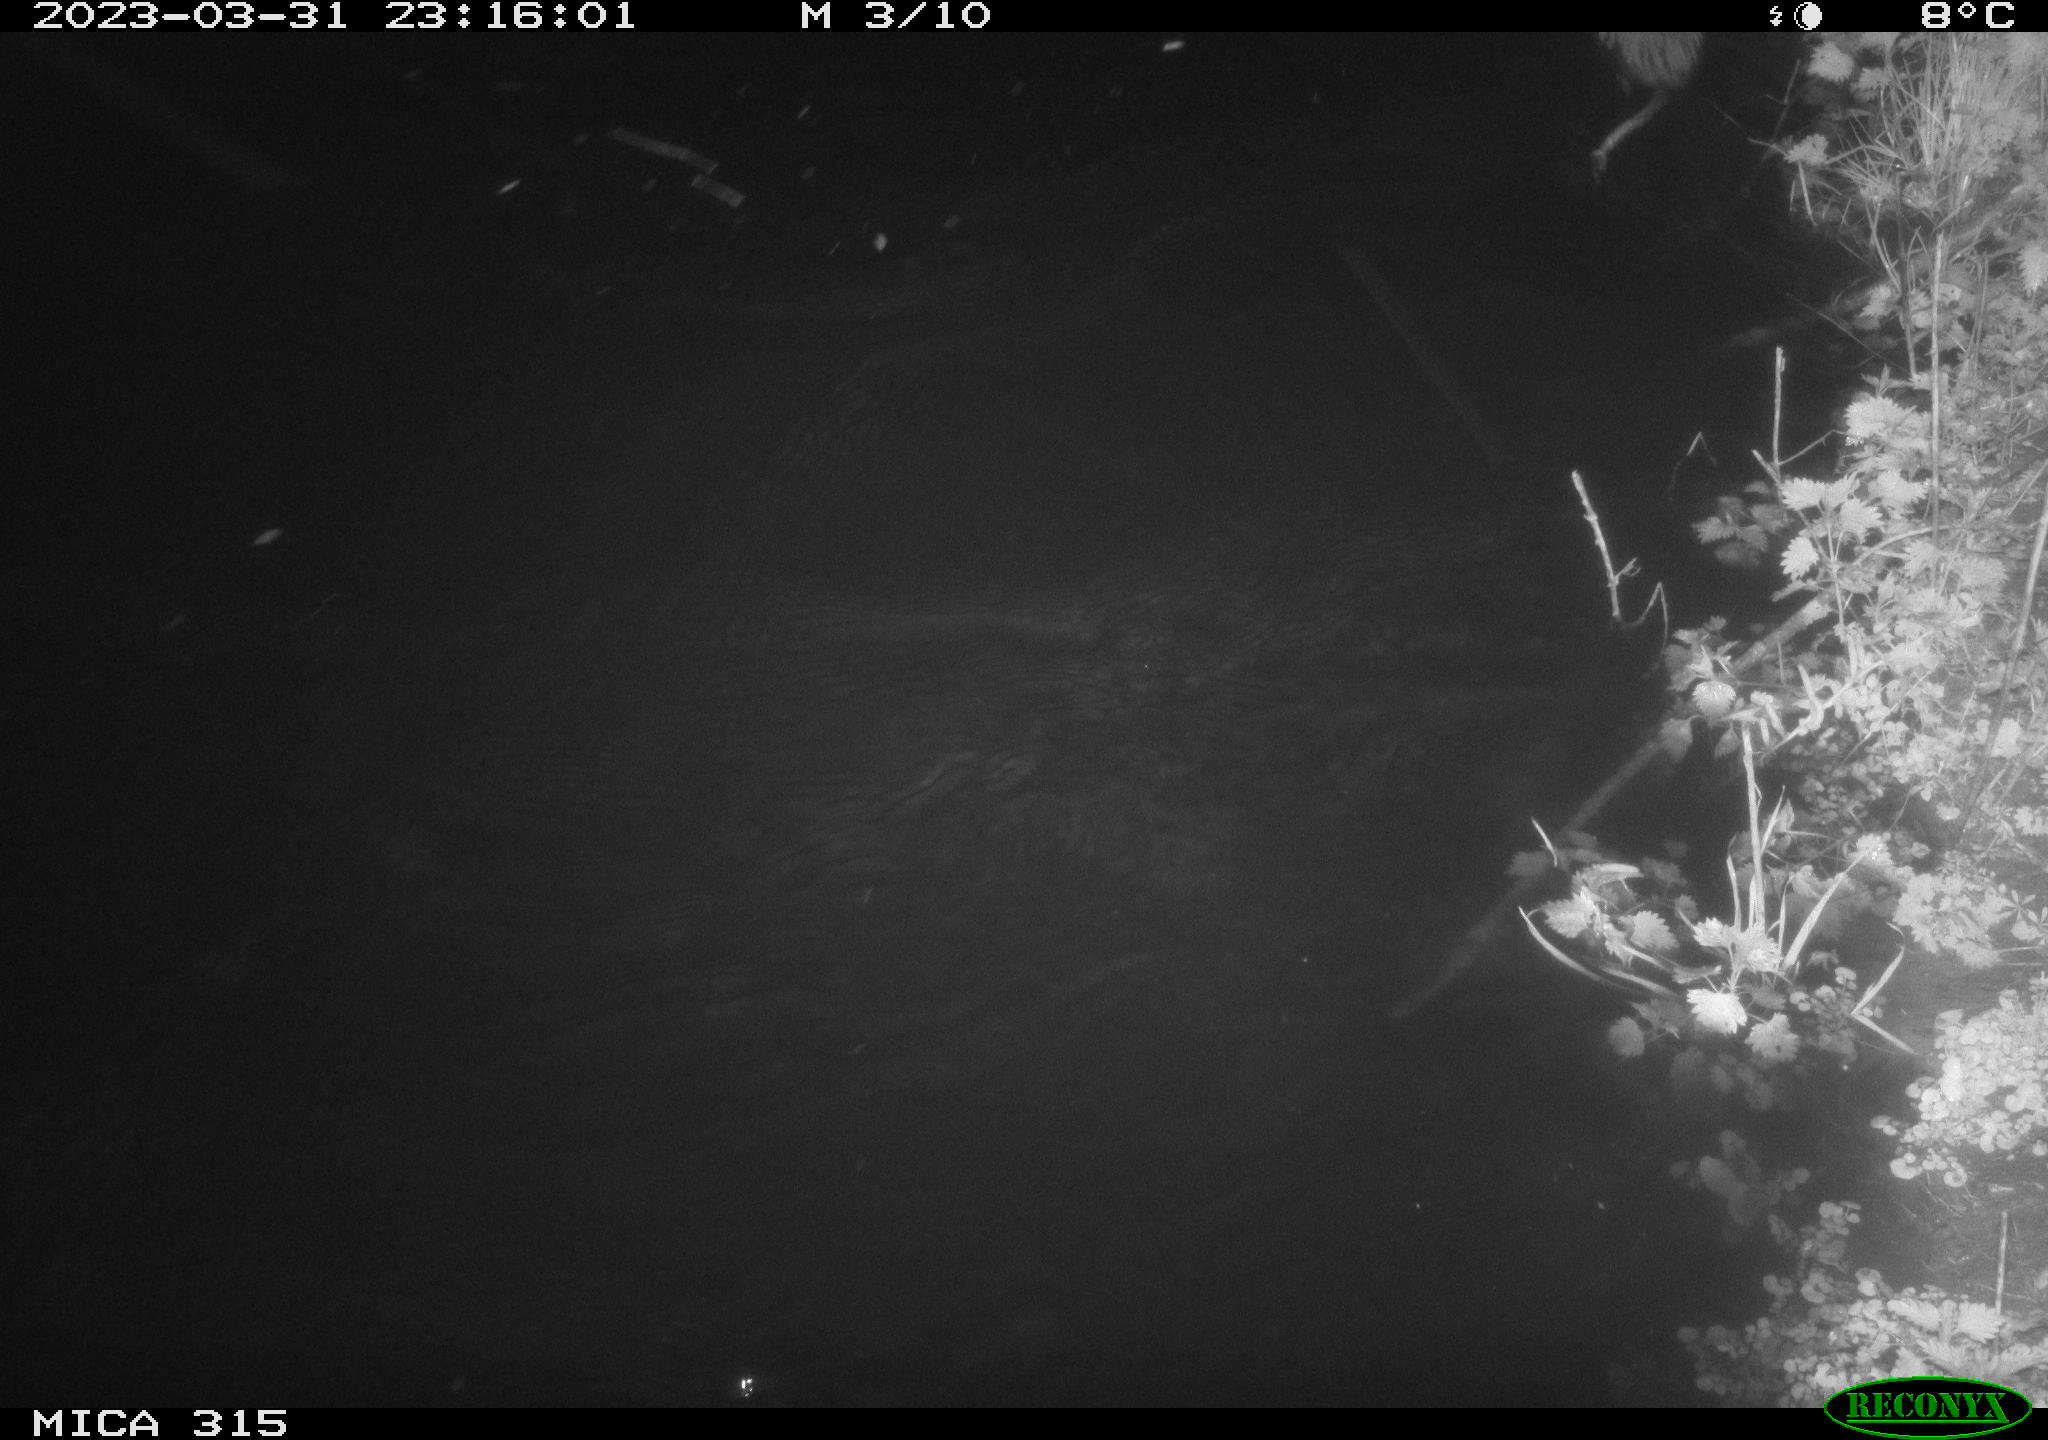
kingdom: Animalia
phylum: Chordata
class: Mammalia
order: Rodentia
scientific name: Rodentia
